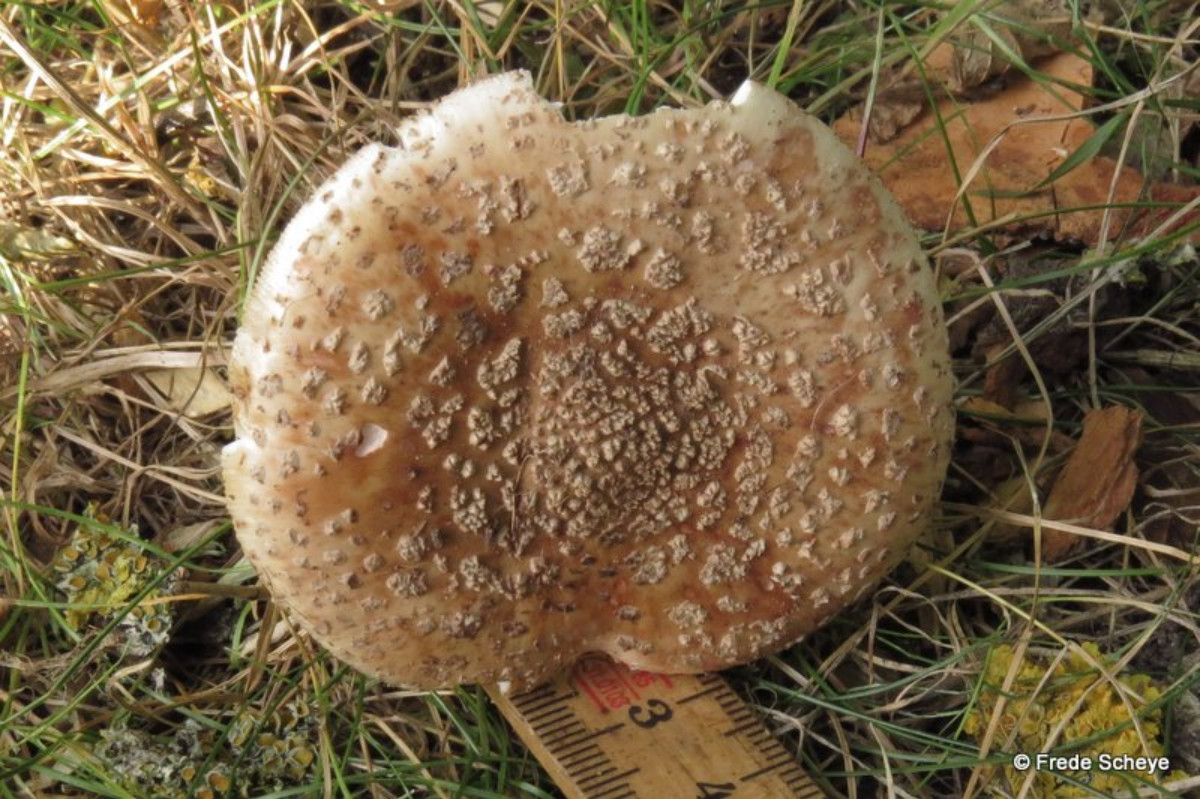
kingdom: Fungi
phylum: Basidiomycota
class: Agaricomycetes
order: Agaricales
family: Amanitaceae
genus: Amanita
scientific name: Amanita rubescens
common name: rødmende fluesvamp
